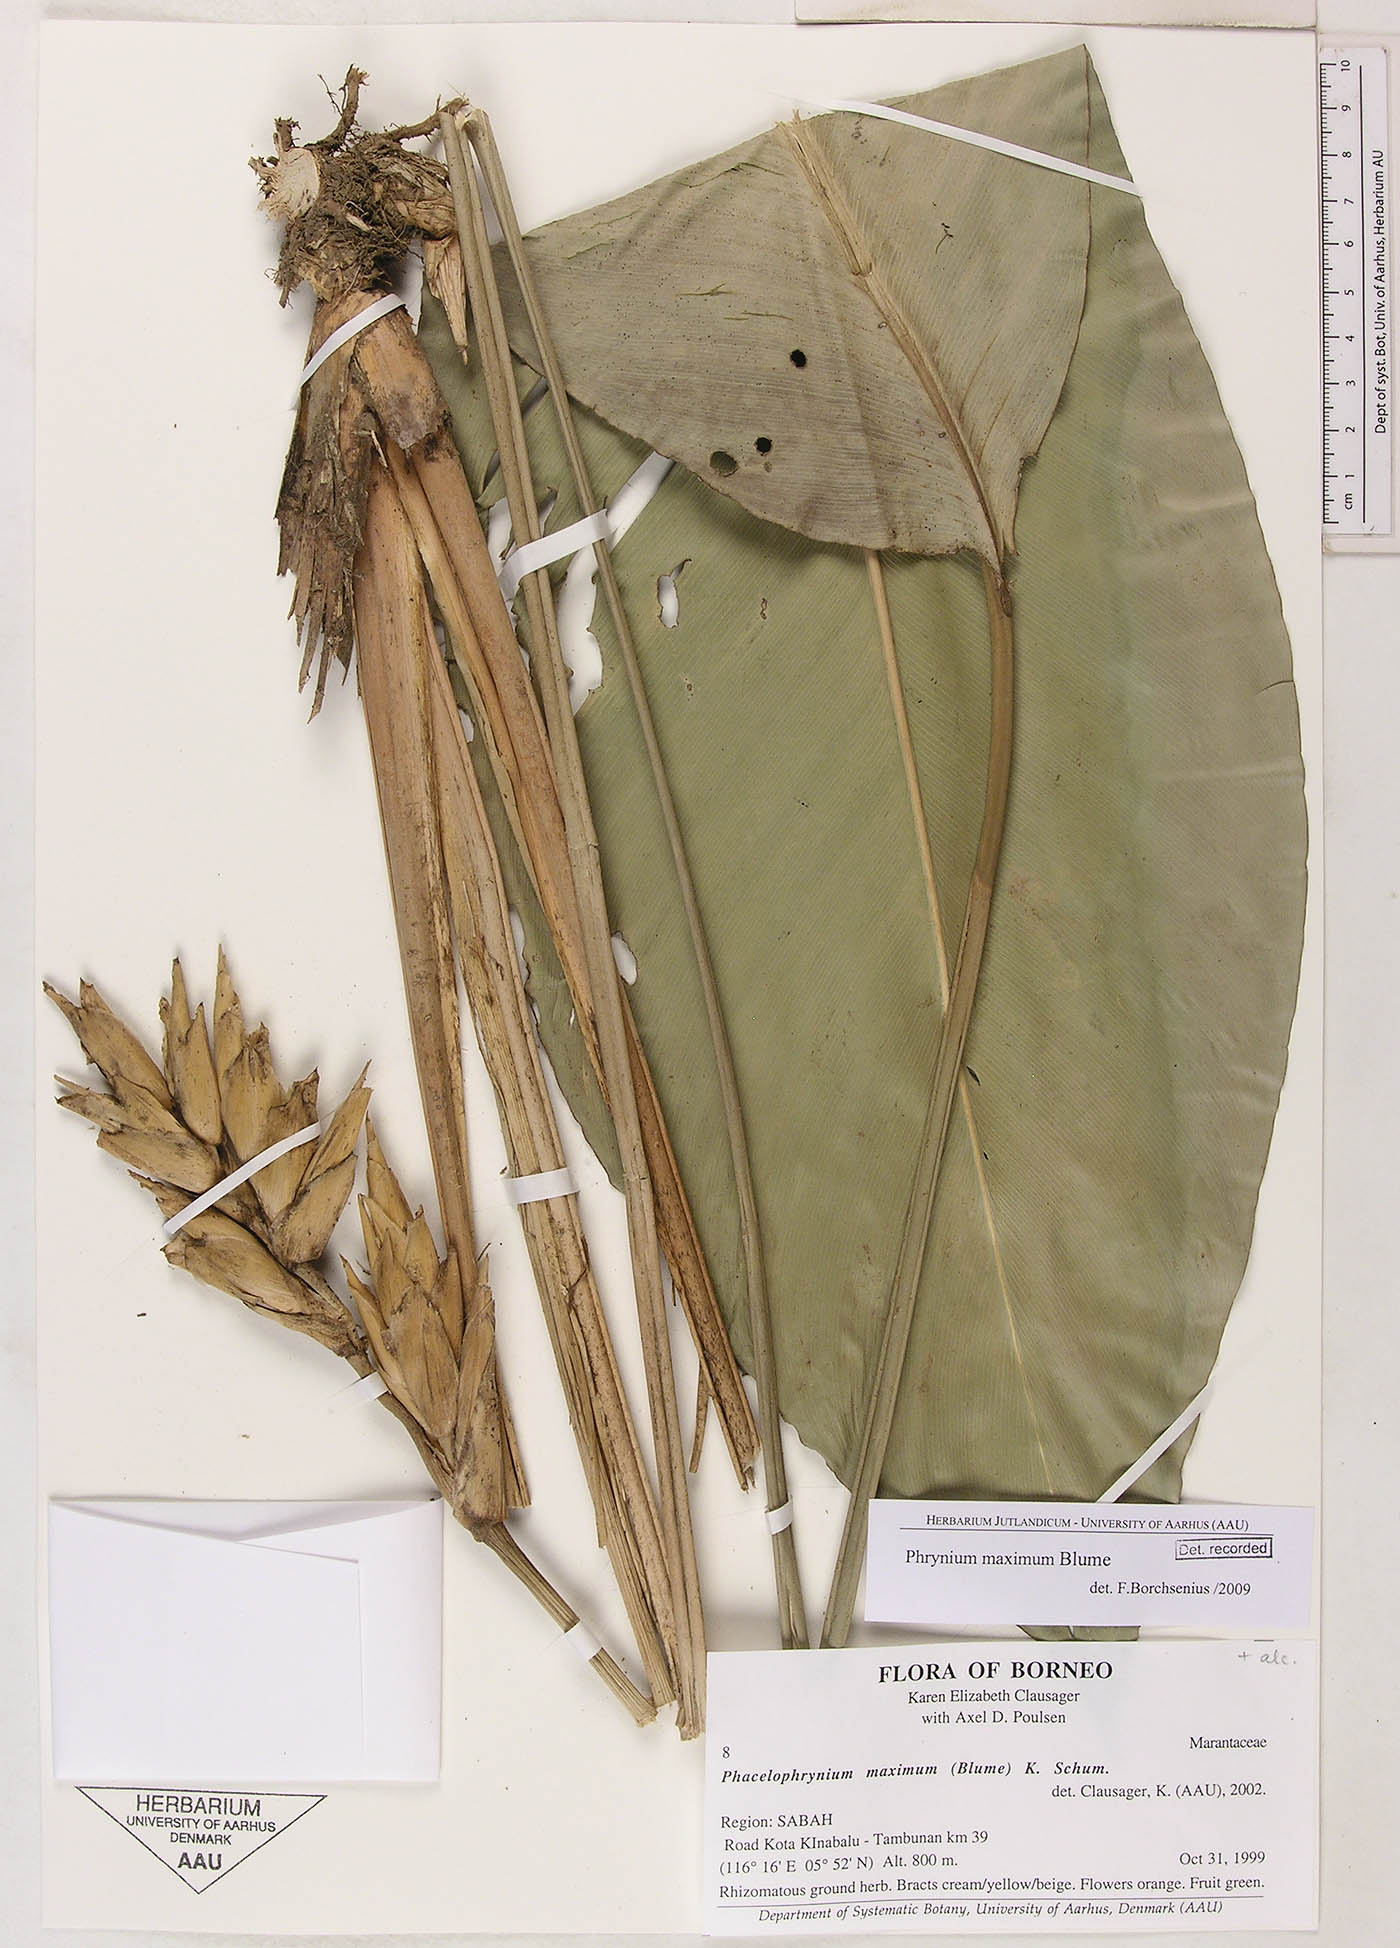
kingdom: Plantae
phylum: Tracheophyta
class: Liliopsida
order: Zingiberales
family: Marantaceae
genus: Phrynium
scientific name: Phrynium maximum
